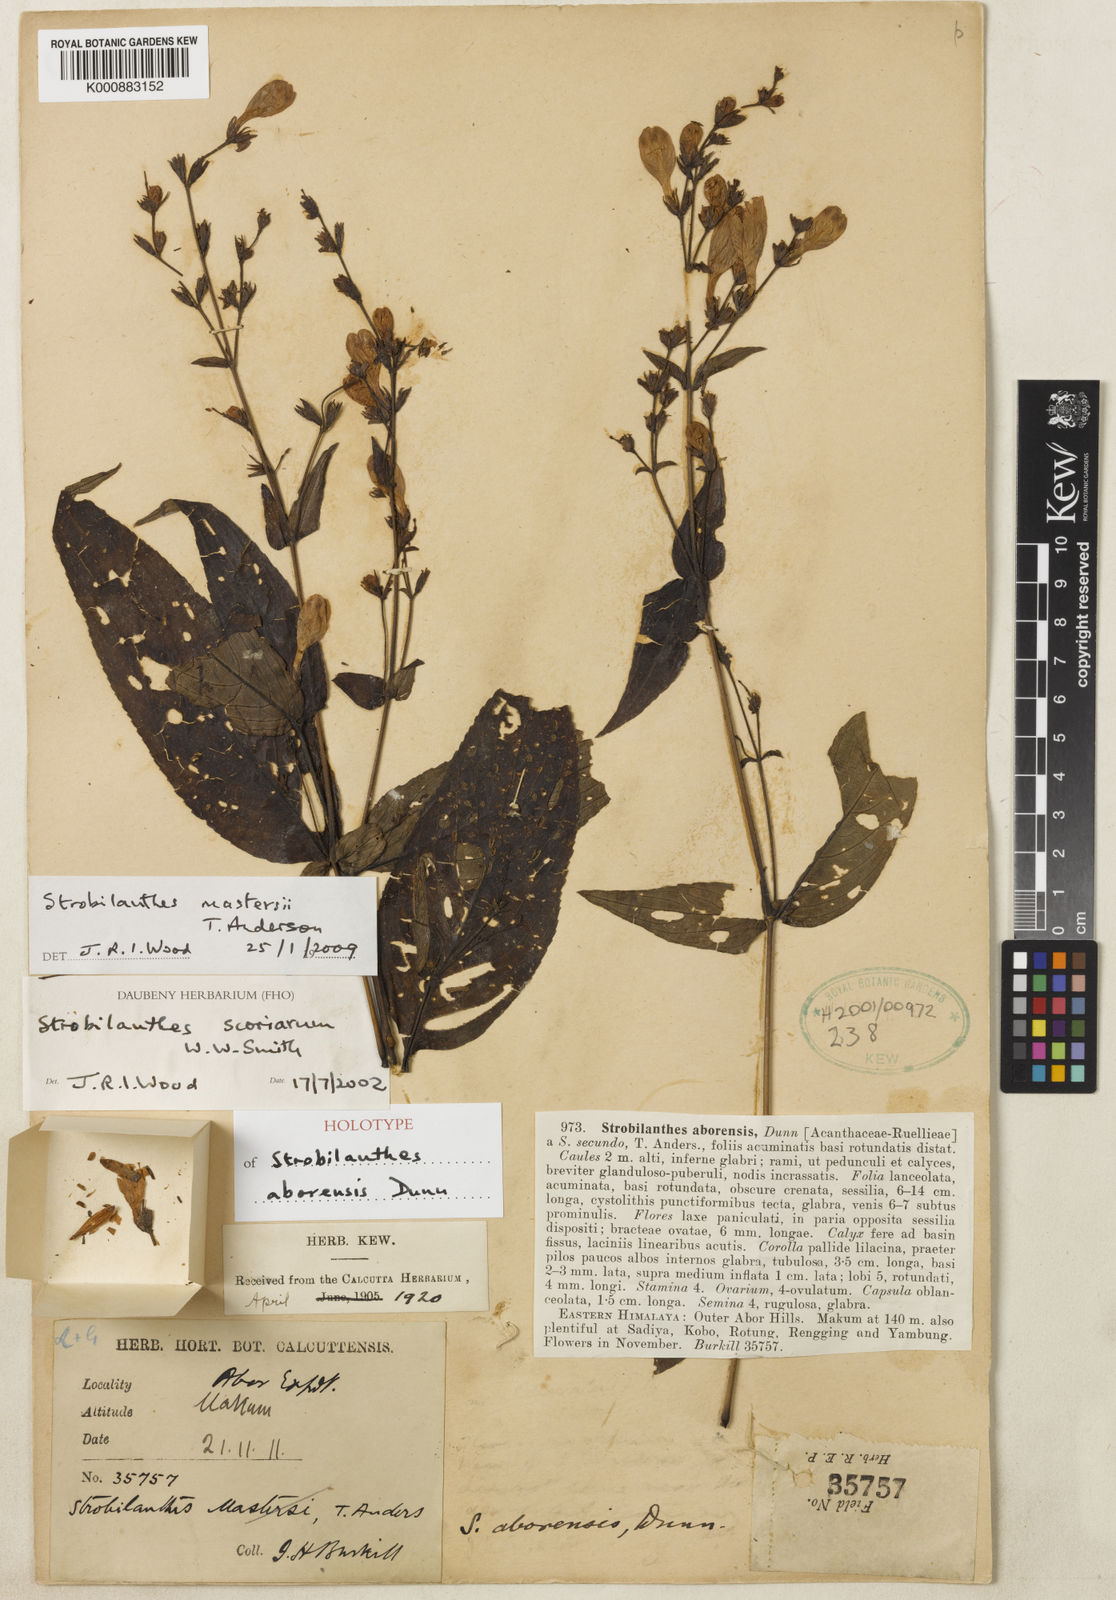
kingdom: Plantae
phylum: Tracheophyta
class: Magnoliopsida
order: Lamiales
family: Acanthaceae
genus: Strobilanthes
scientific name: Strobilanthes mastersii
